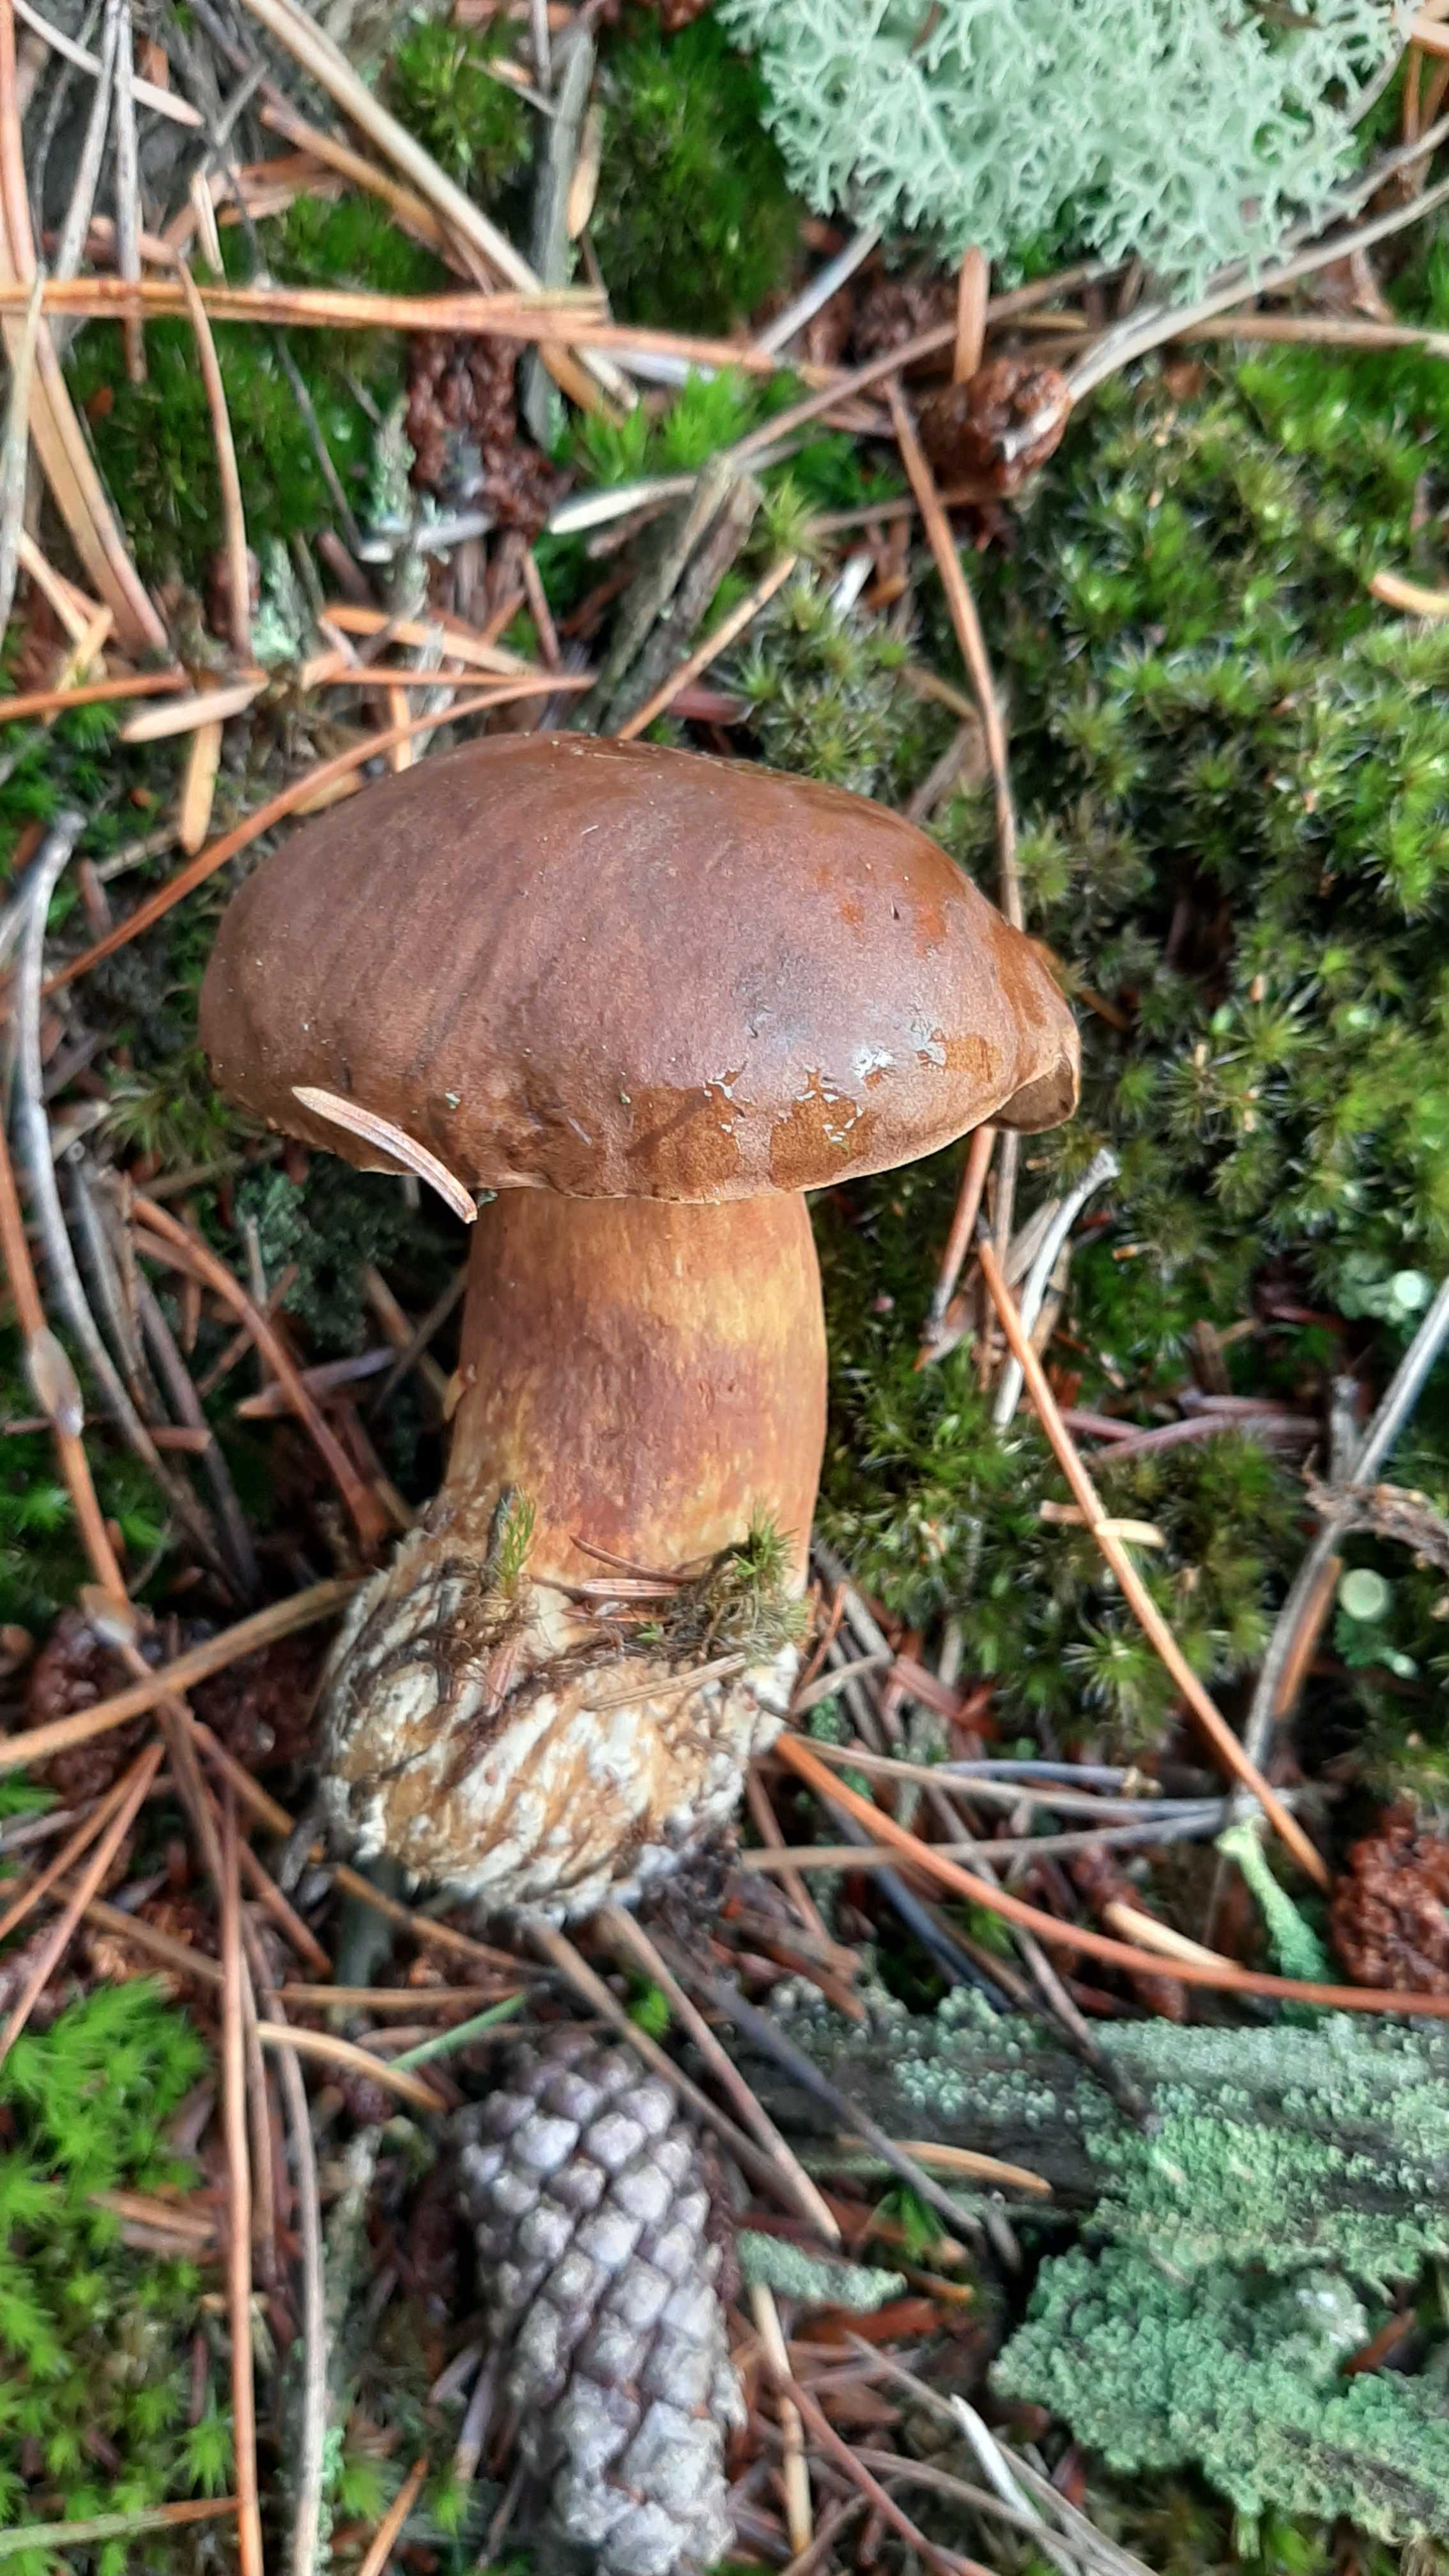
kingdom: Fungi
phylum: Basidiomycota
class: Agaricomycetes
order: Boletales
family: Boletaceae
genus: Chalciporus
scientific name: Chalciporus piperatus
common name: peberrørhat
